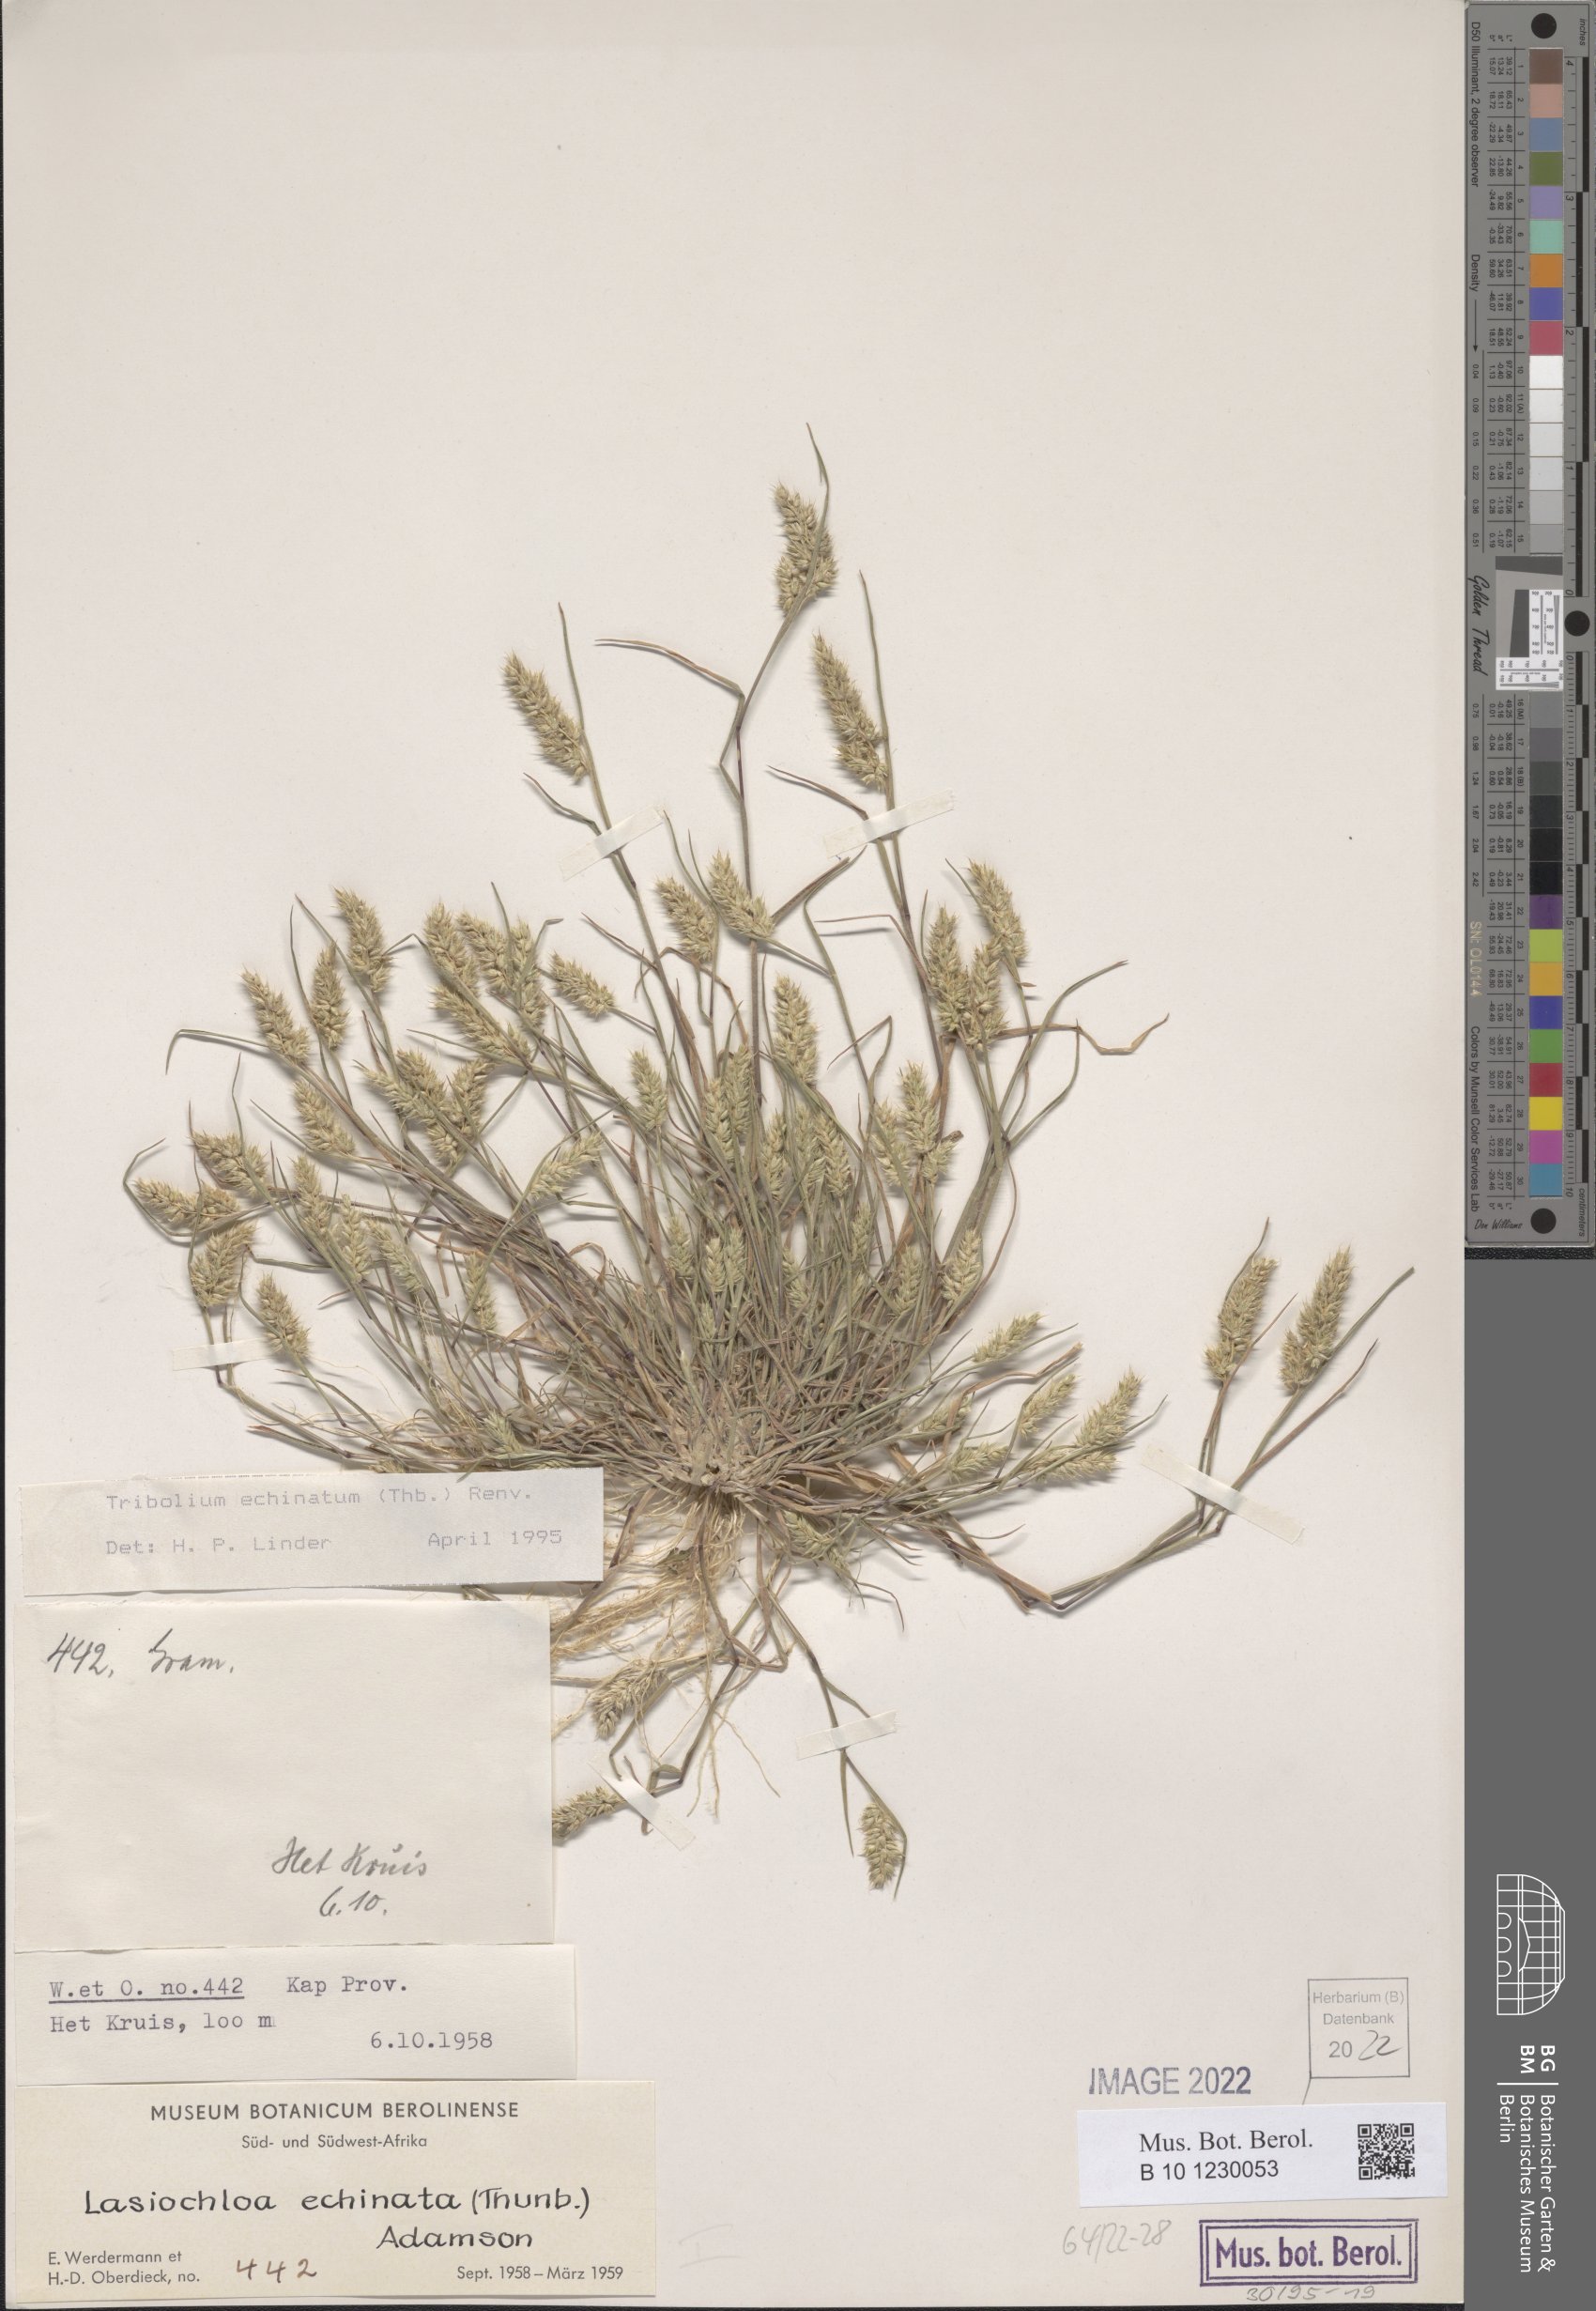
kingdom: Plantae
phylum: Tracheophyta
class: Liliopsida
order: Poales
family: Poaceae
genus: Tribolium
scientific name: Tribolium echinatum
